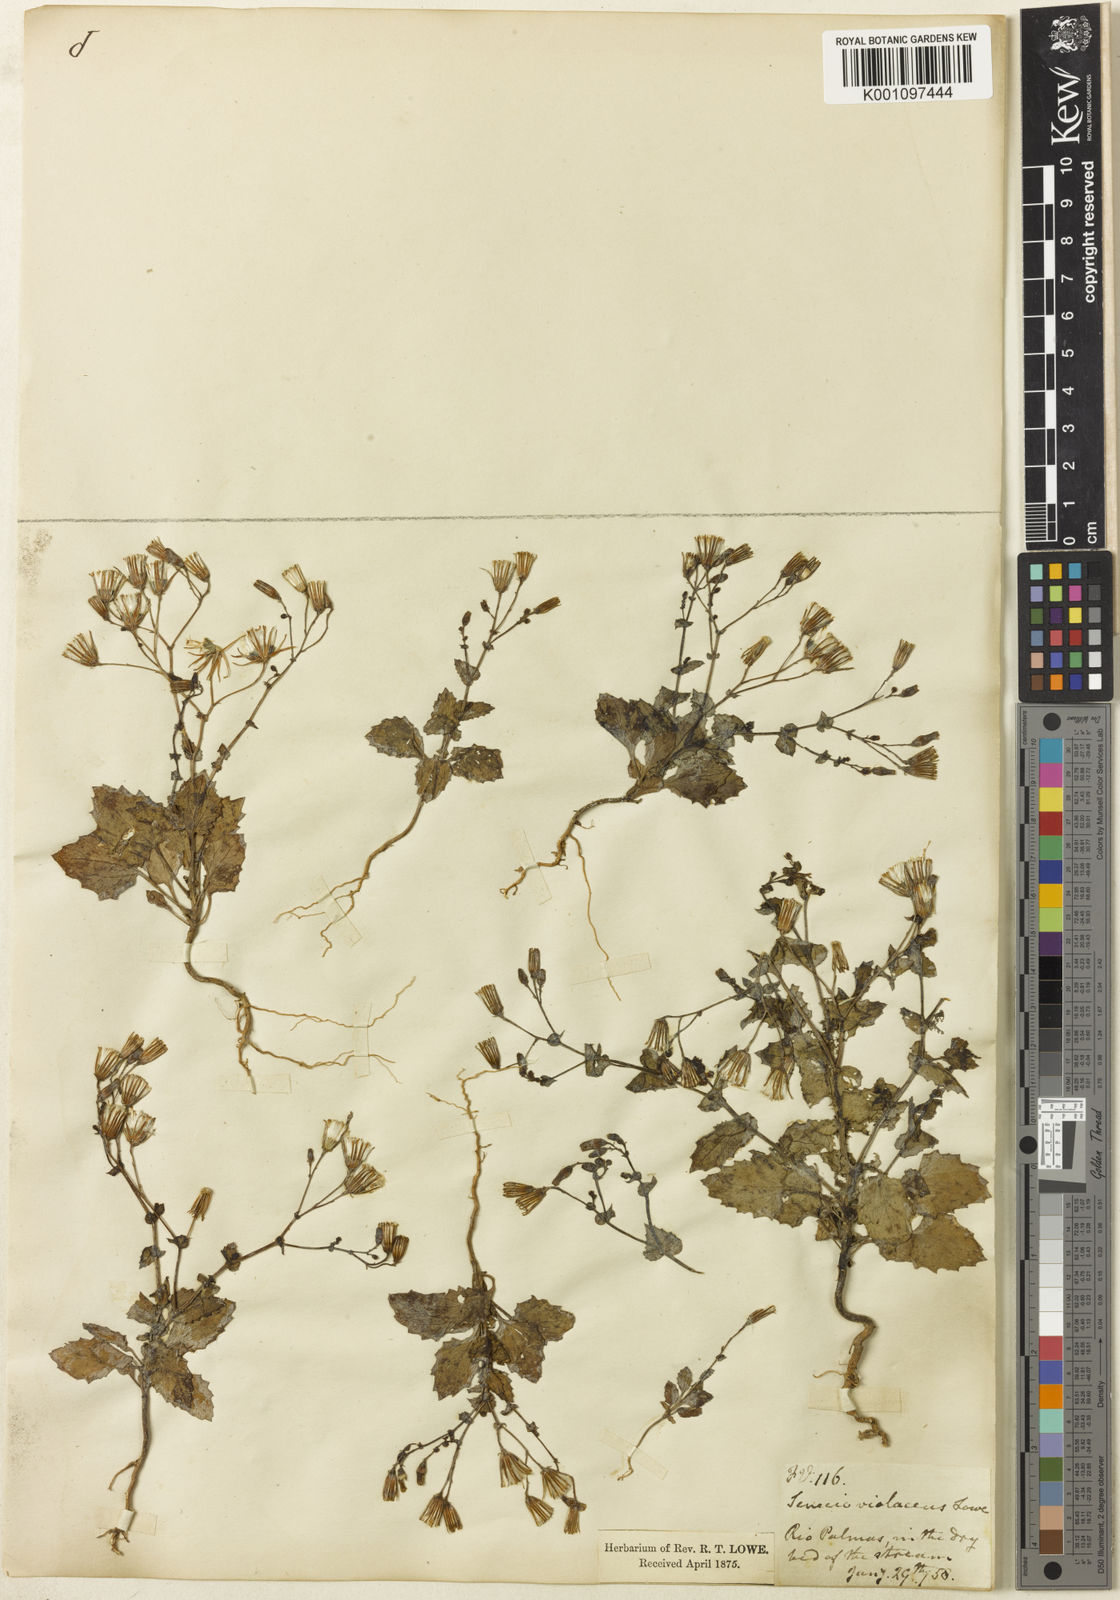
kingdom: Plantae
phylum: Tracheophyta
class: Magnoliopsida
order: Asterales
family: Asteraceae
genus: Senecio
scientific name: Senecio flavus
